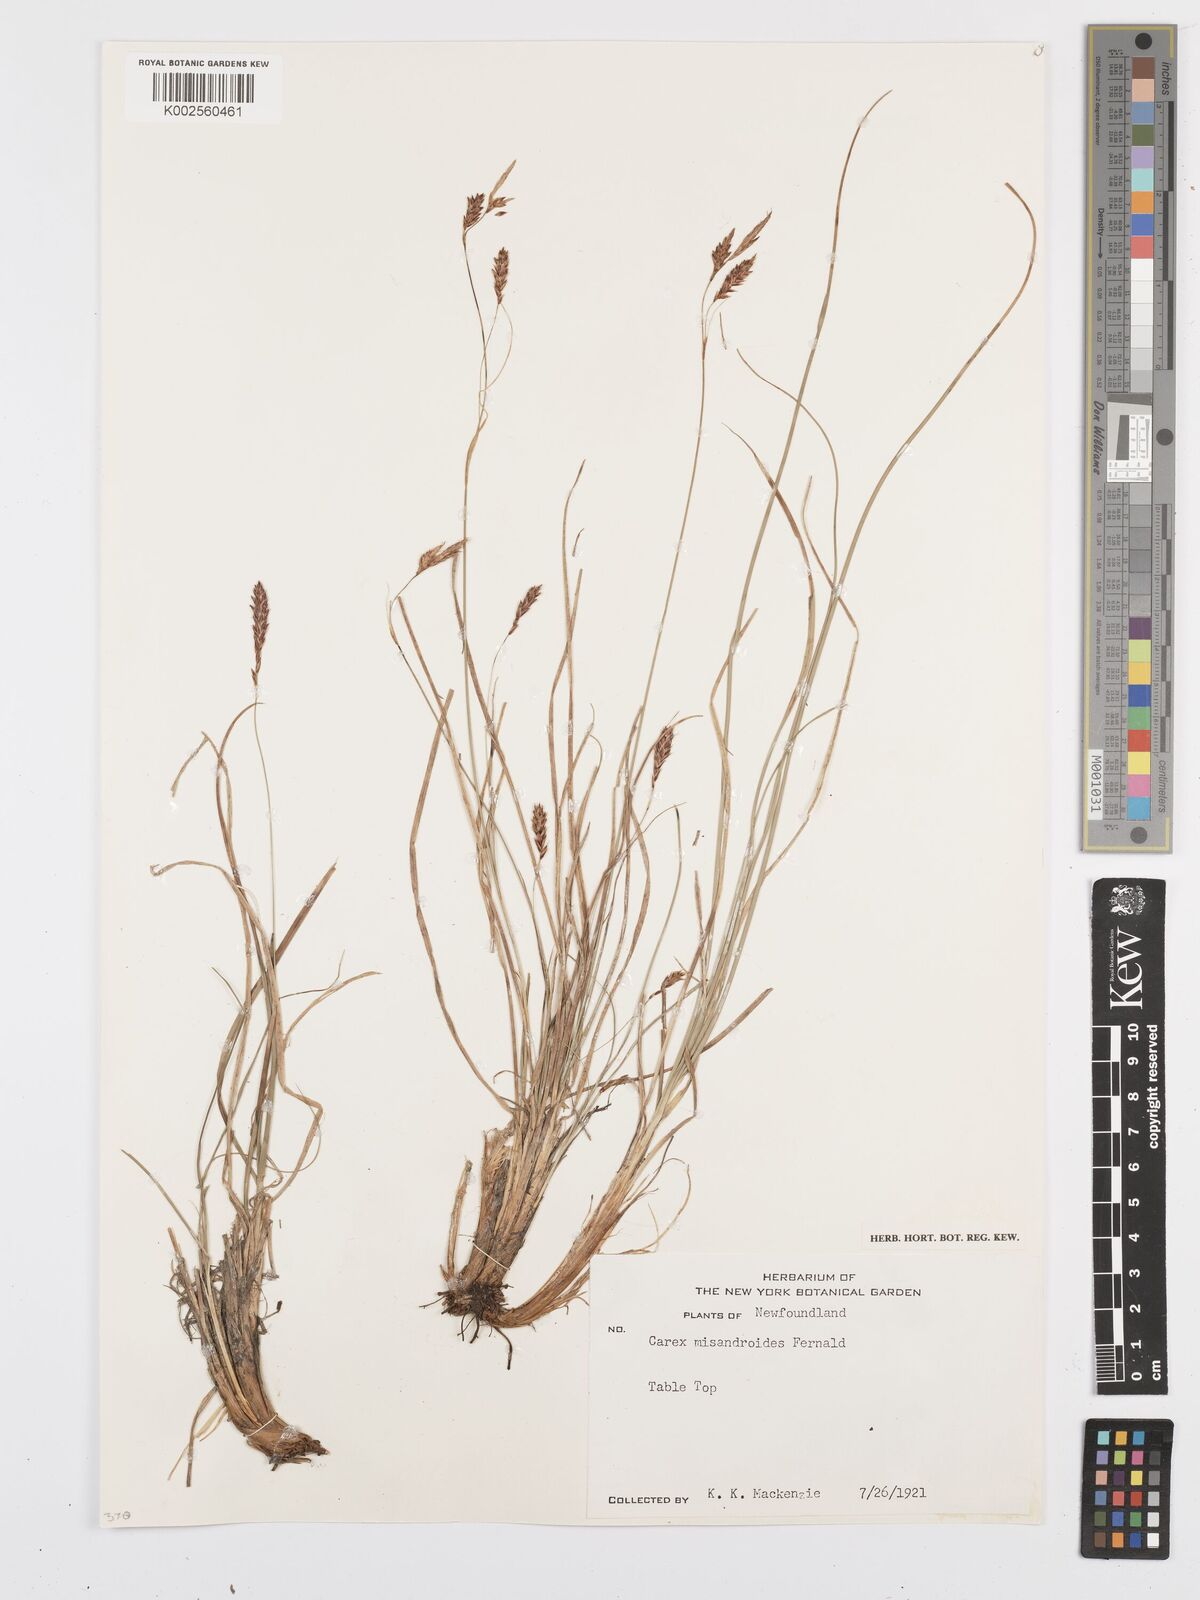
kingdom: Plantae
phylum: Tracheophyta
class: Liliopsida
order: Poales
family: Cyperaceae
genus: Carex
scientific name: Carex petricosa
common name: Rock sedge
